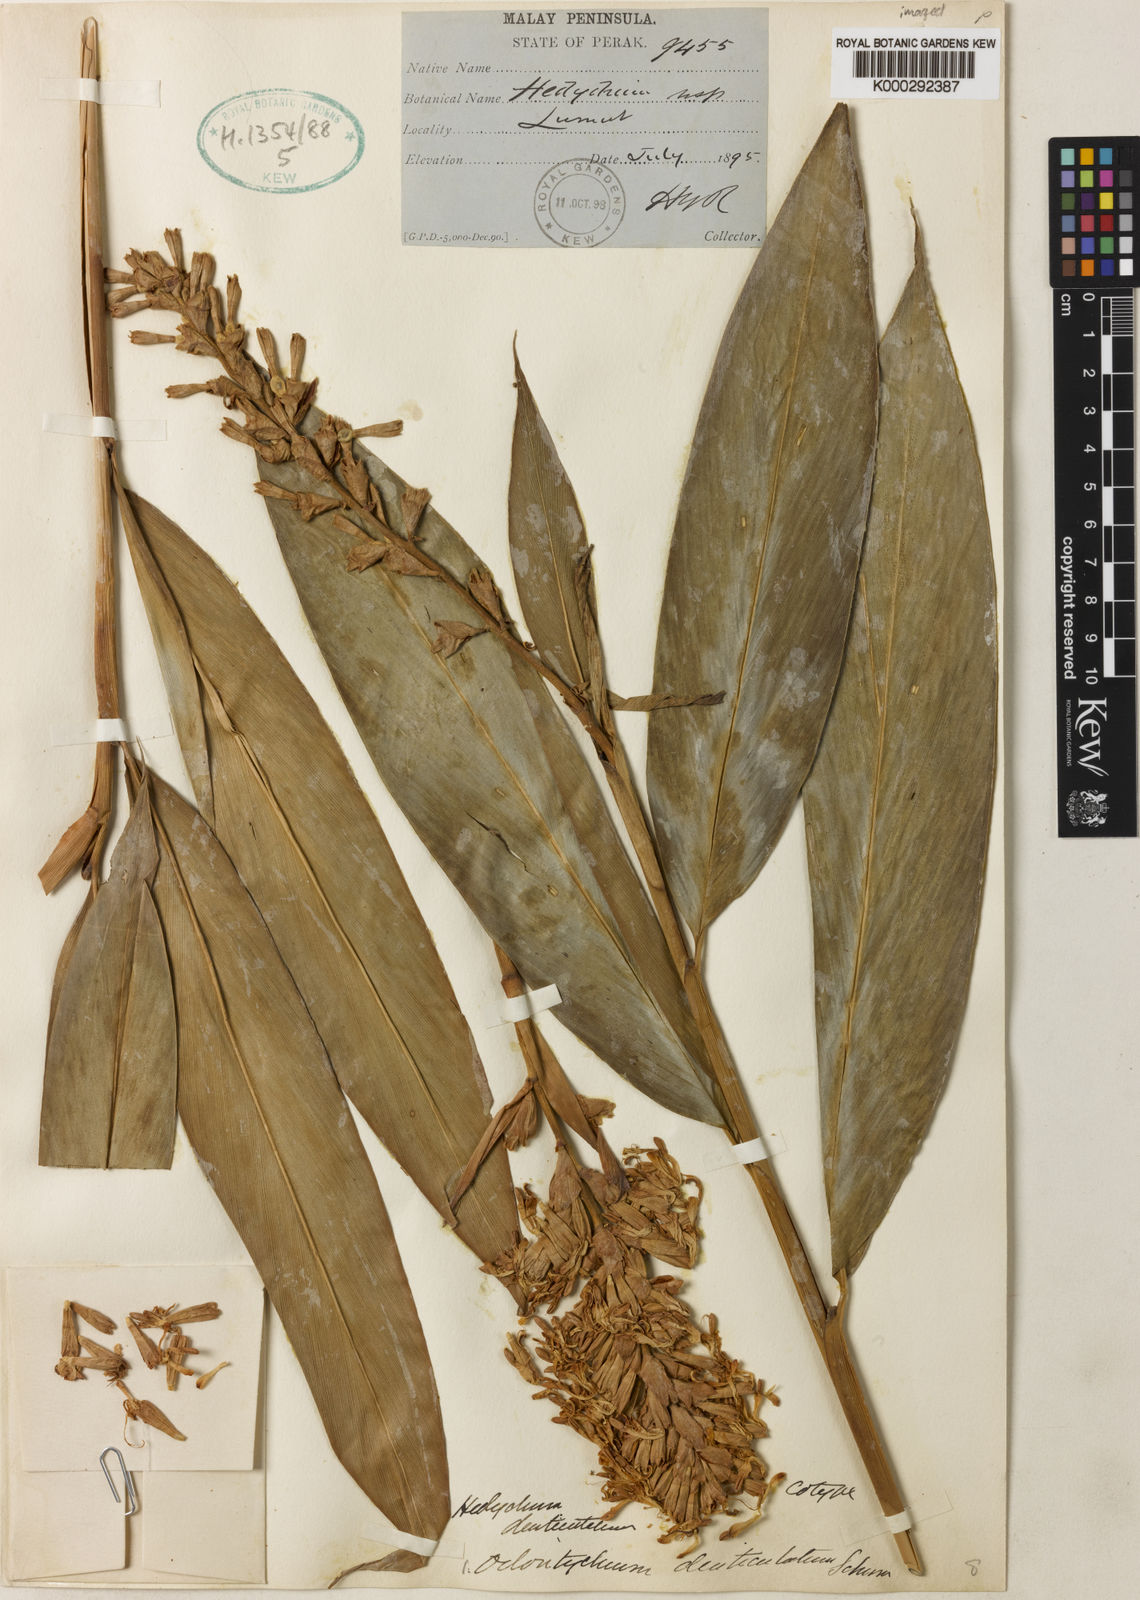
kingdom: Plantae
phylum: Tracheophyta
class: Liliopsida
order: Zingiberales
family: Zingiberaceae
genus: Alpinia
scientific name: Alpinia denticulata
